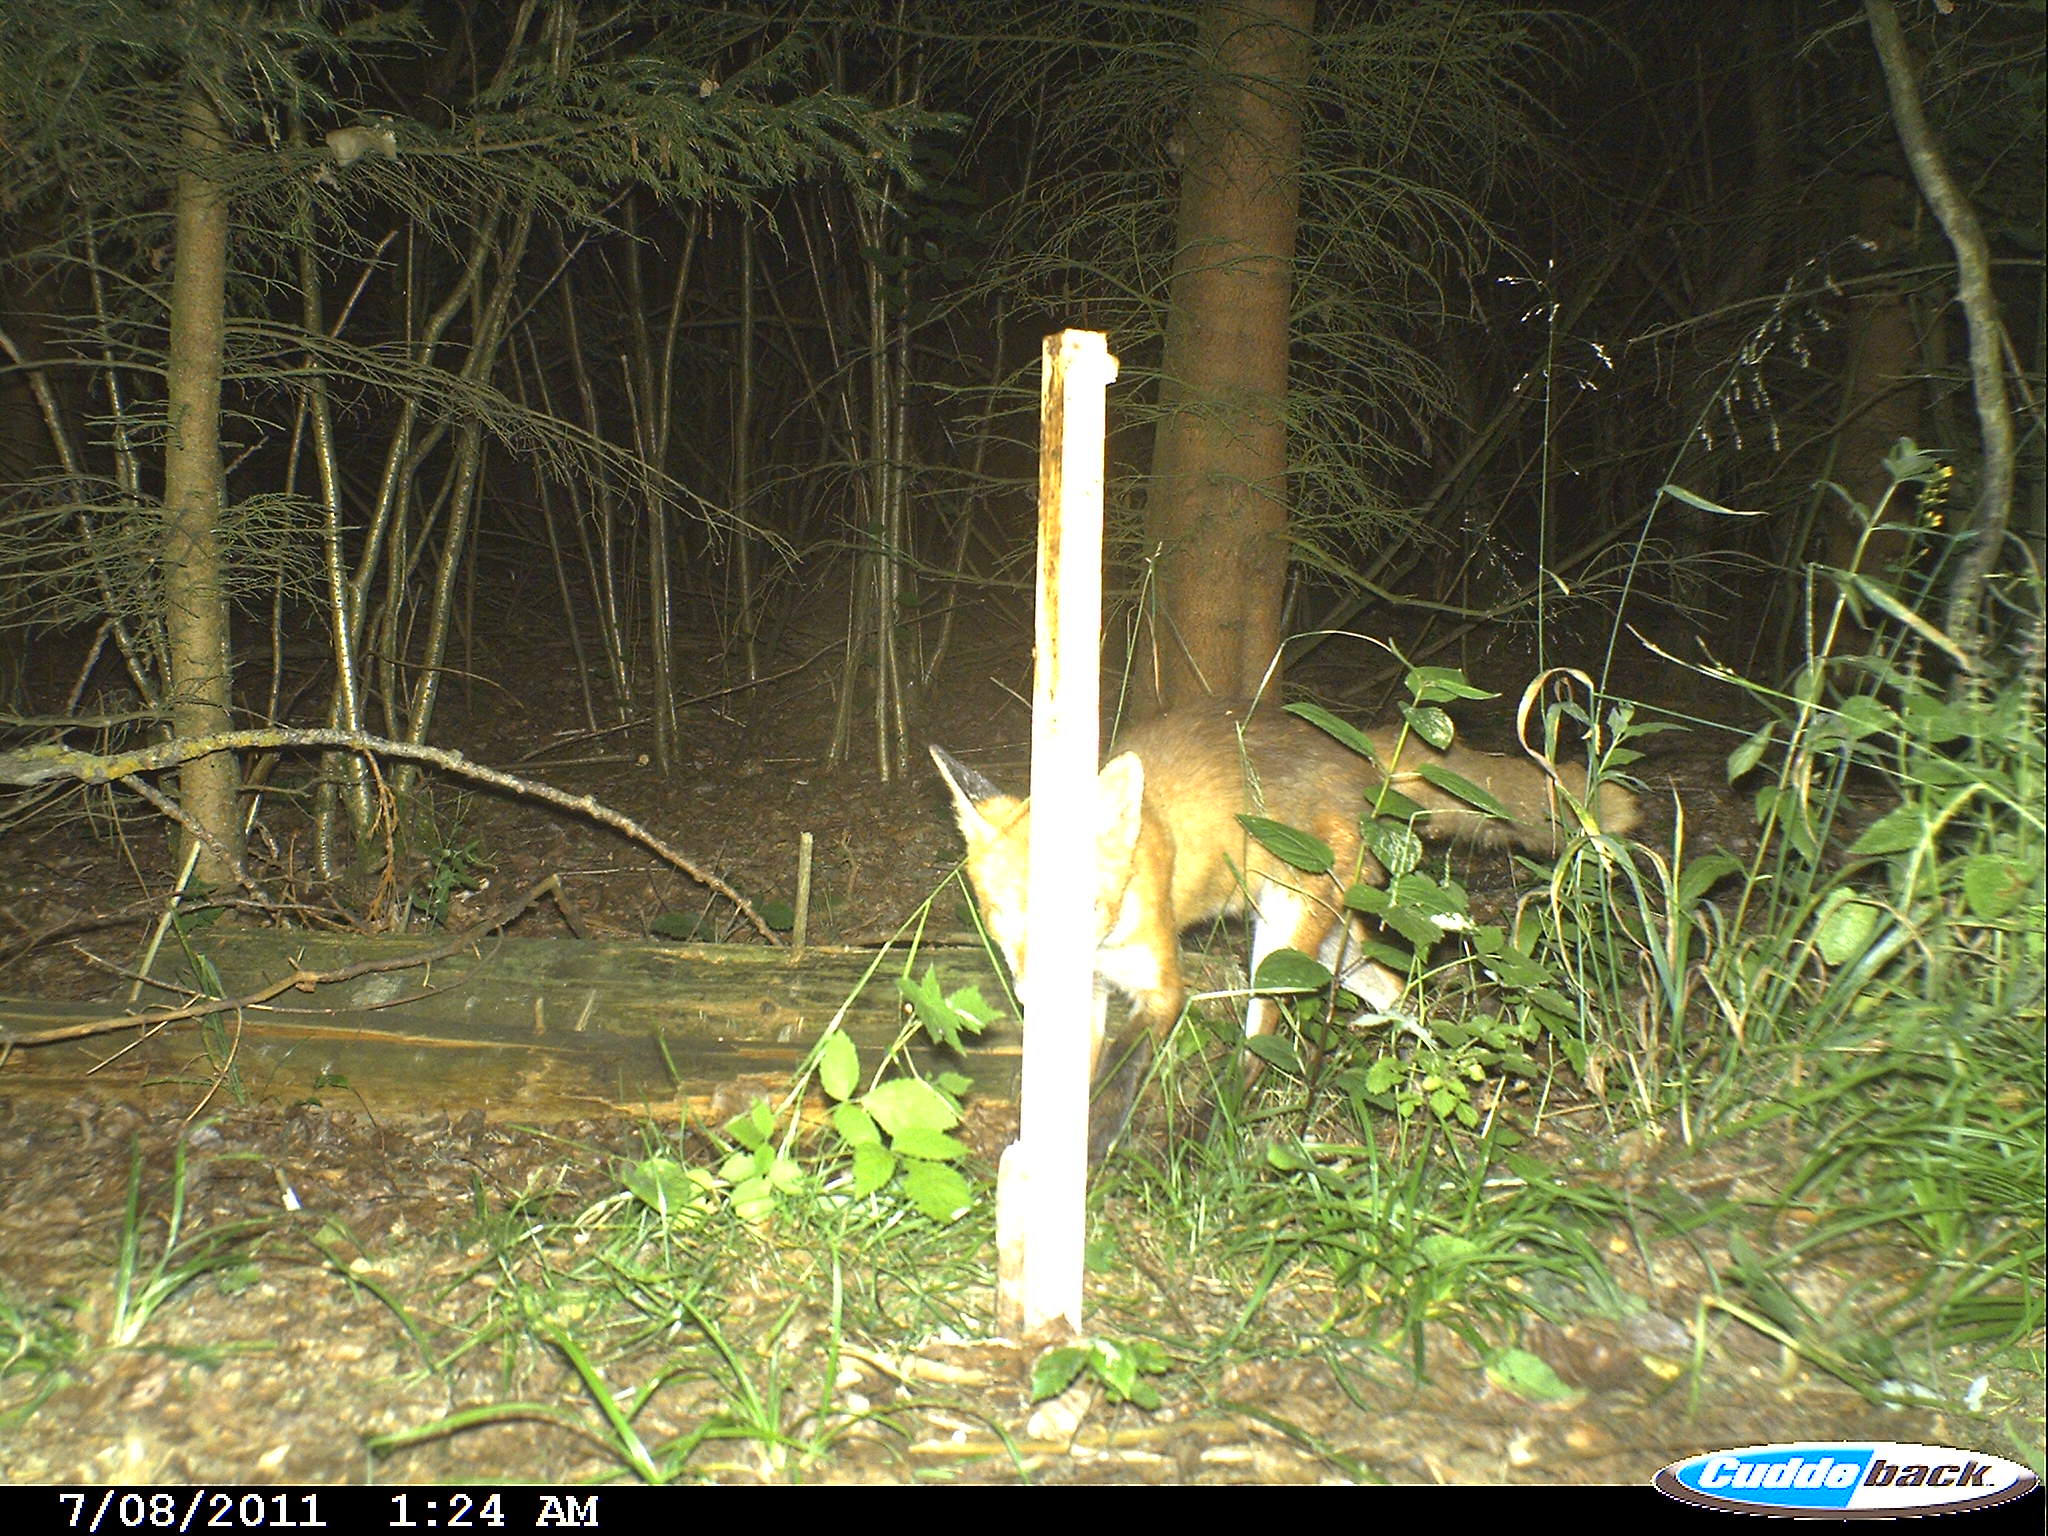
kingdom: Animalia
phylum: Chordata
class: Mammalia
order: Carnivora
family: Canidae
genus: Vulpes
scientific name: Vulpes vulpes
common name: Red fox
